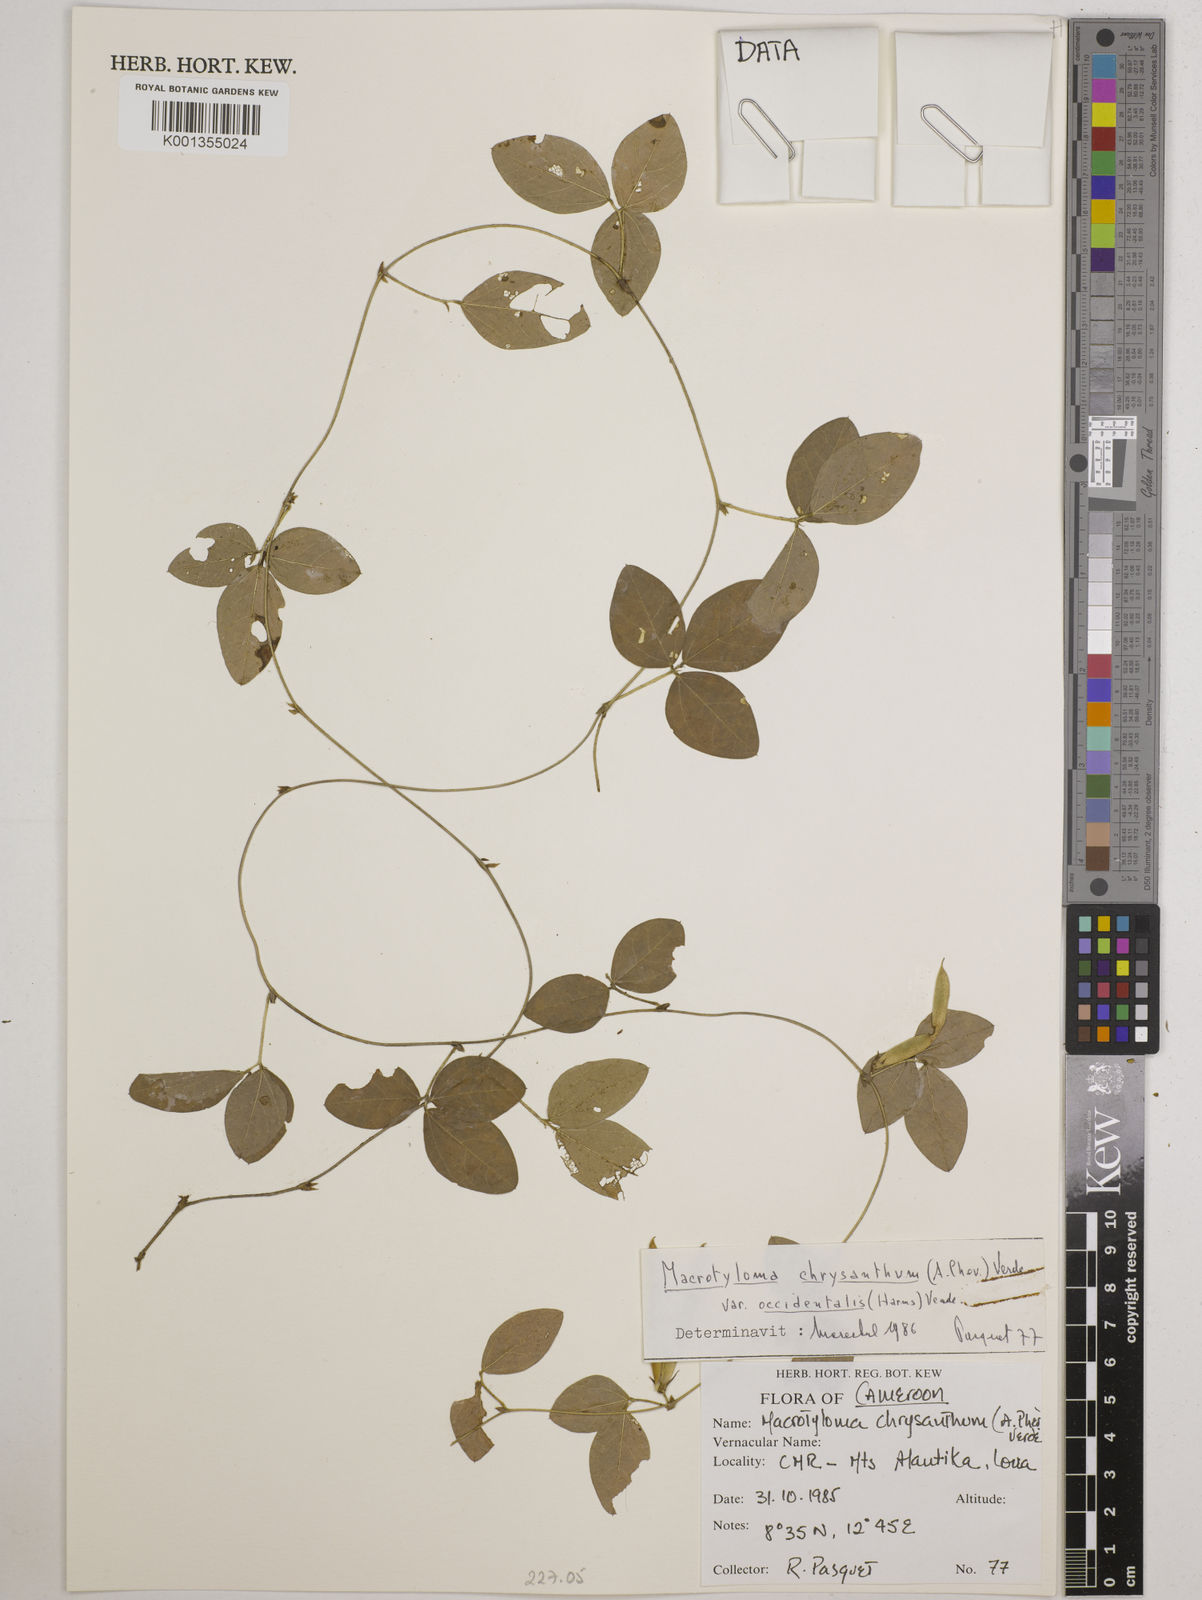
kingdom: Plantae
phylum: Tracheophyta
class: Magnoliopsida
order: Fabales
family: Fabaceae
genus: Macrotyloma
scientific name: Macrotyloma
